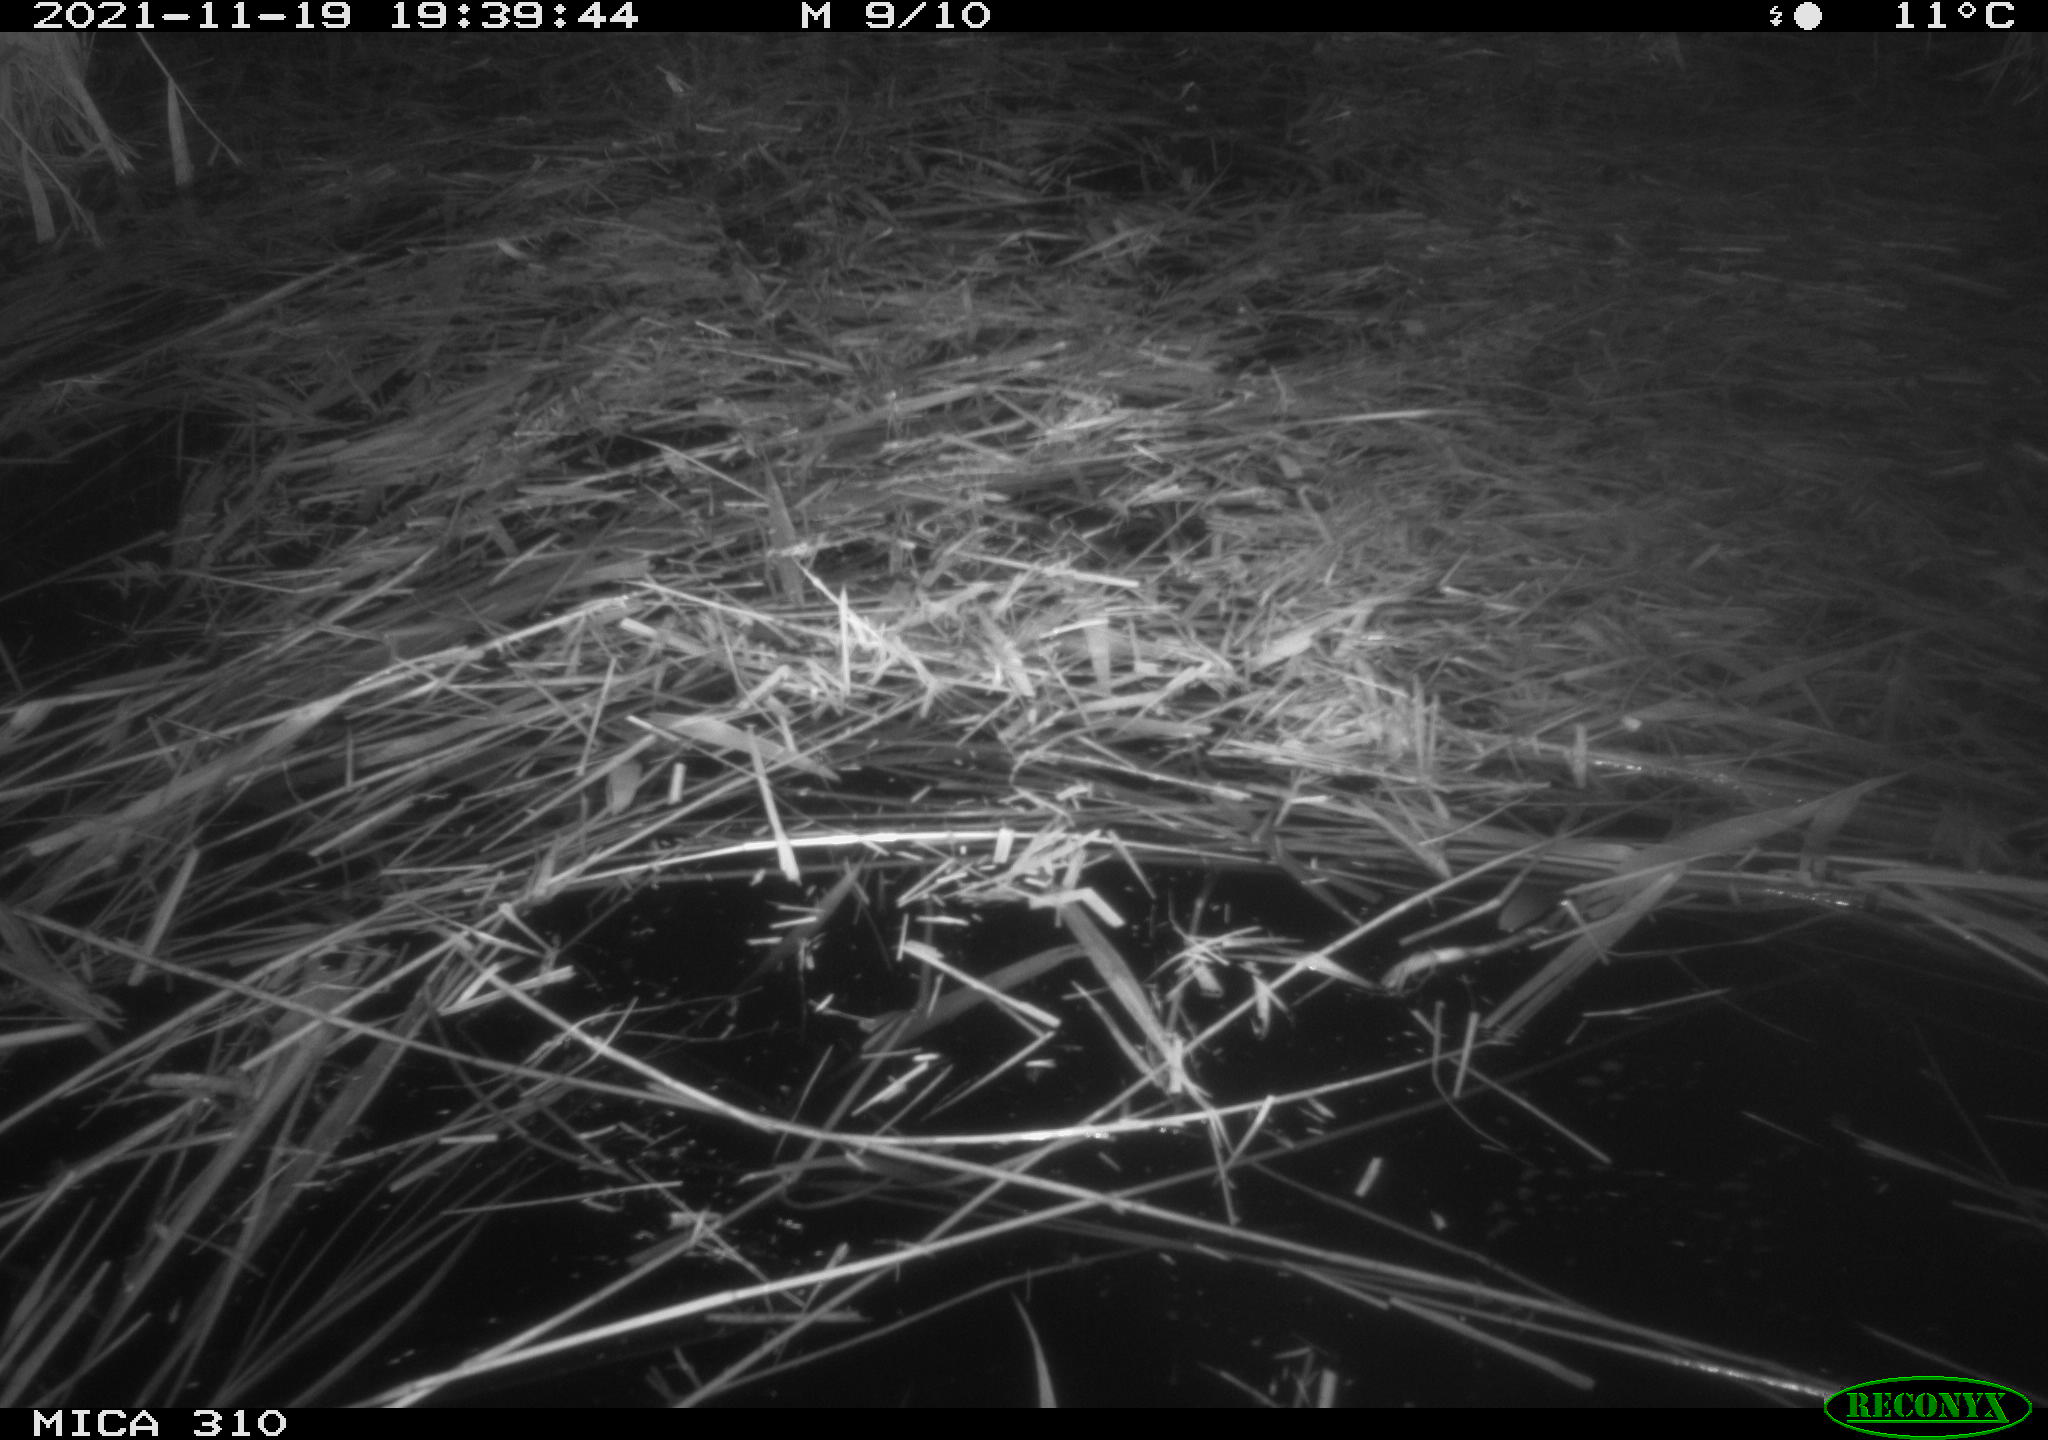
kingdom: Animalia
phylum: Chordata
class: Mammalia
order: Rodentia
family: Muridae
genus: Rattus
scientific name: Rattus norvegicus
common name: Brown rat
